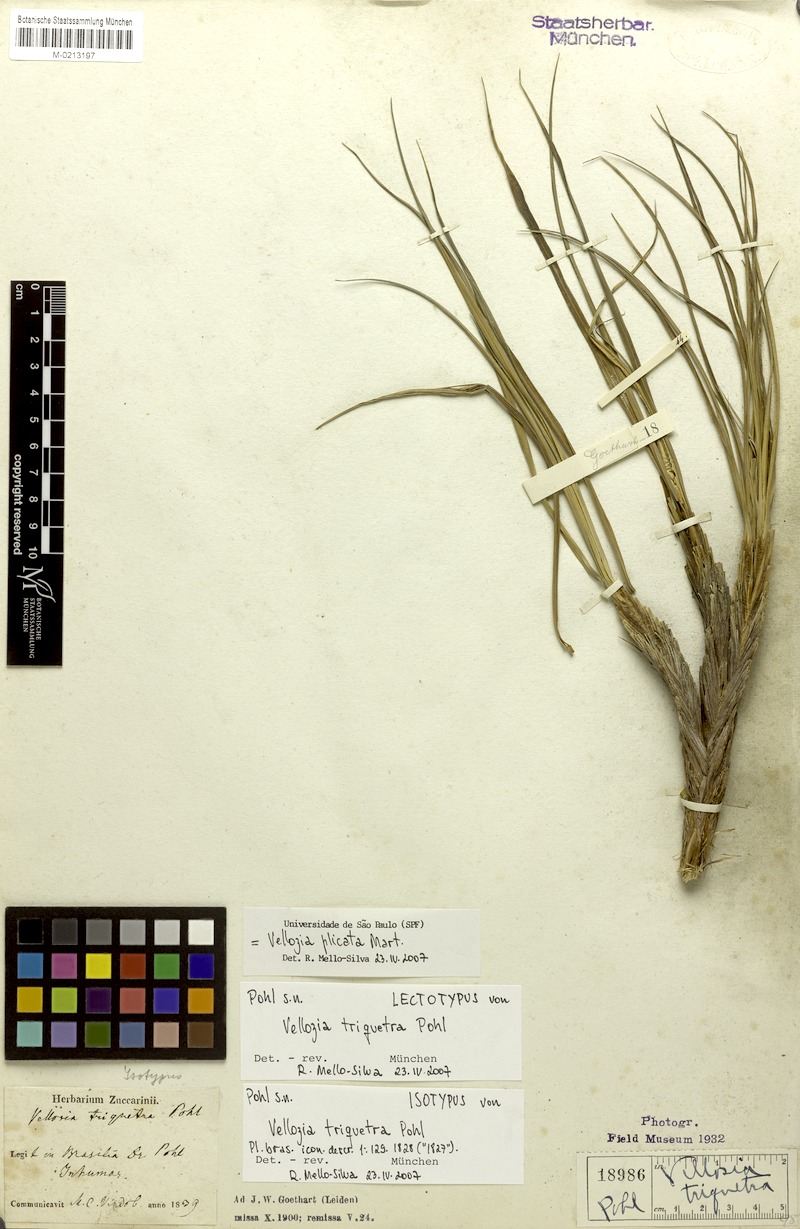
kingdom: Plantae
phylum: Tracheophyta
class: Liliopsida
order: Pandanales
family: Velloziaceae
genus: Nanuza
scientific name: Nanuza plicata
